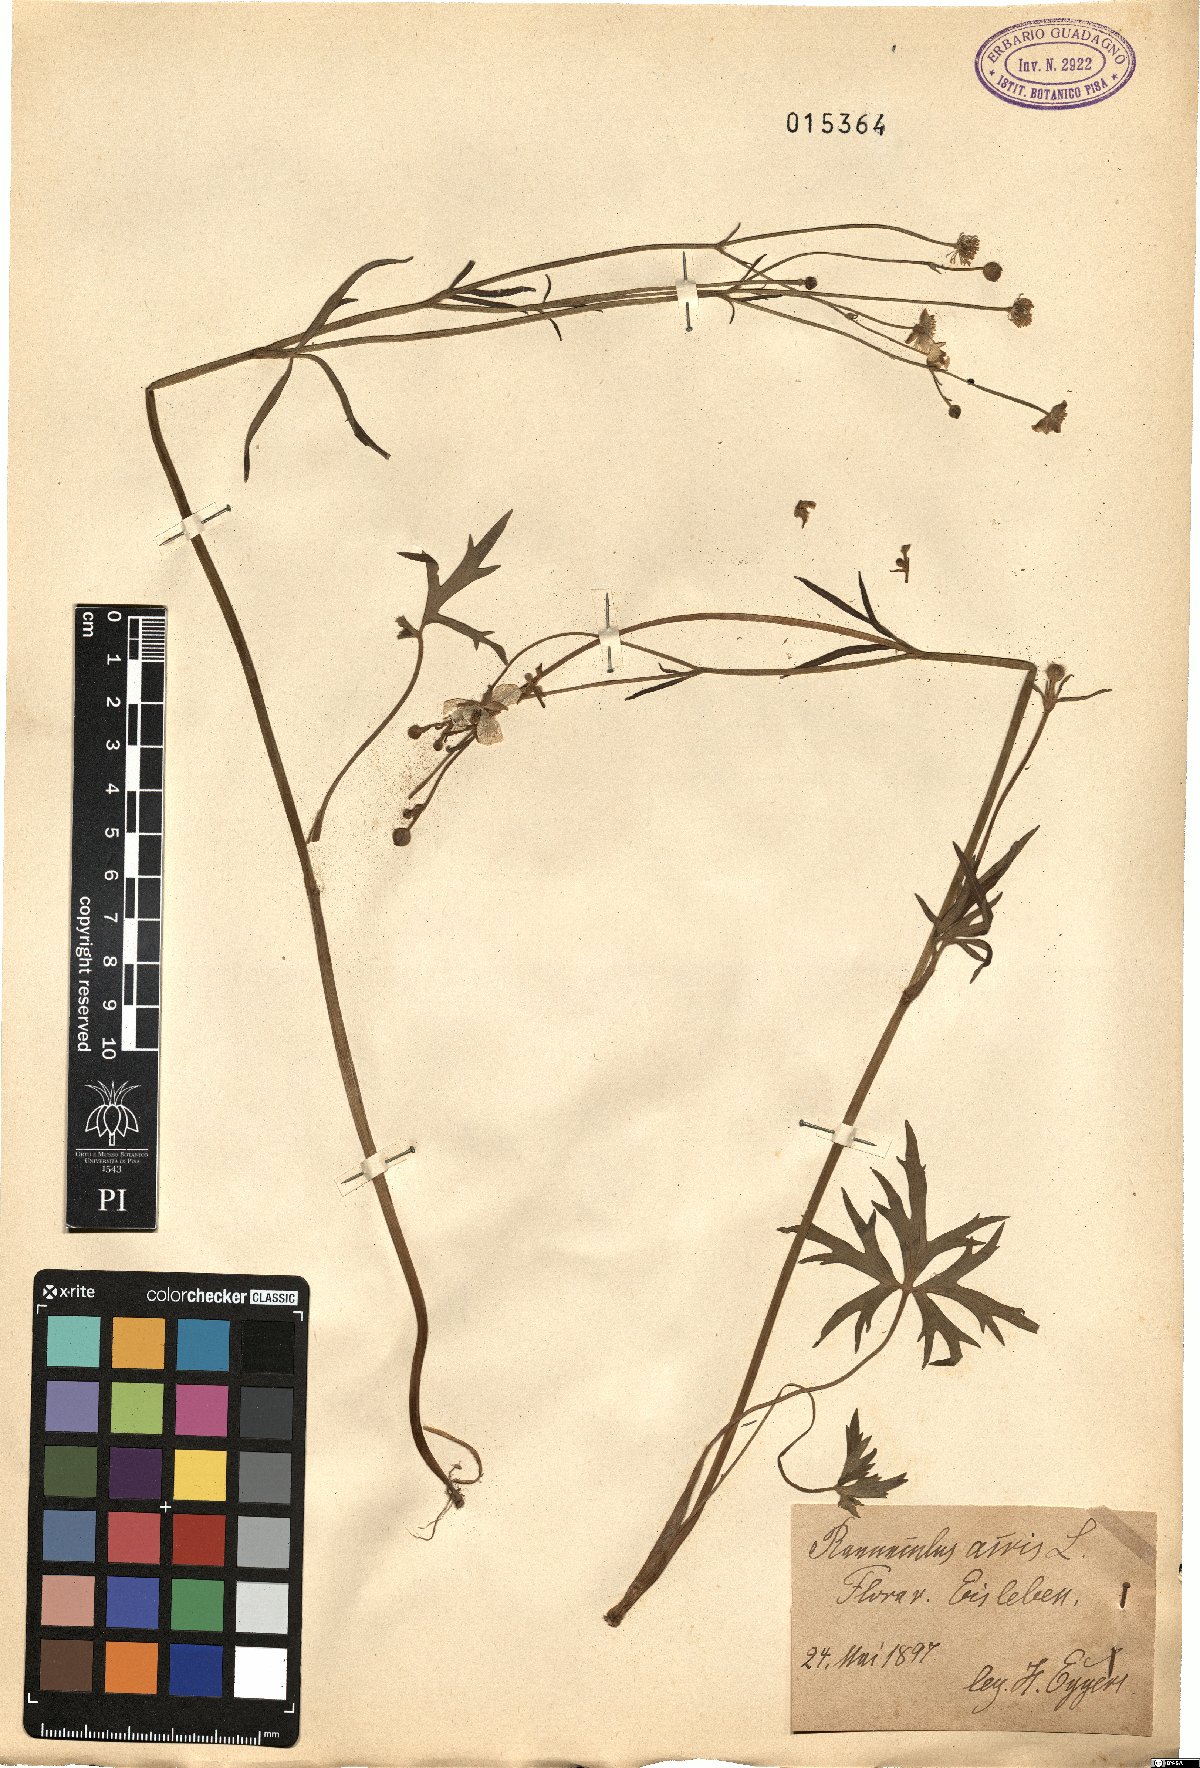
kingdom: Plantae
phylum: Tracheophyta
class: Magnoliopsida
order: Ranunculales
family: Ranunculaceae
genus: Ranunculus
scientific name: Ranunculus acris
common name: Meadow buttercup
